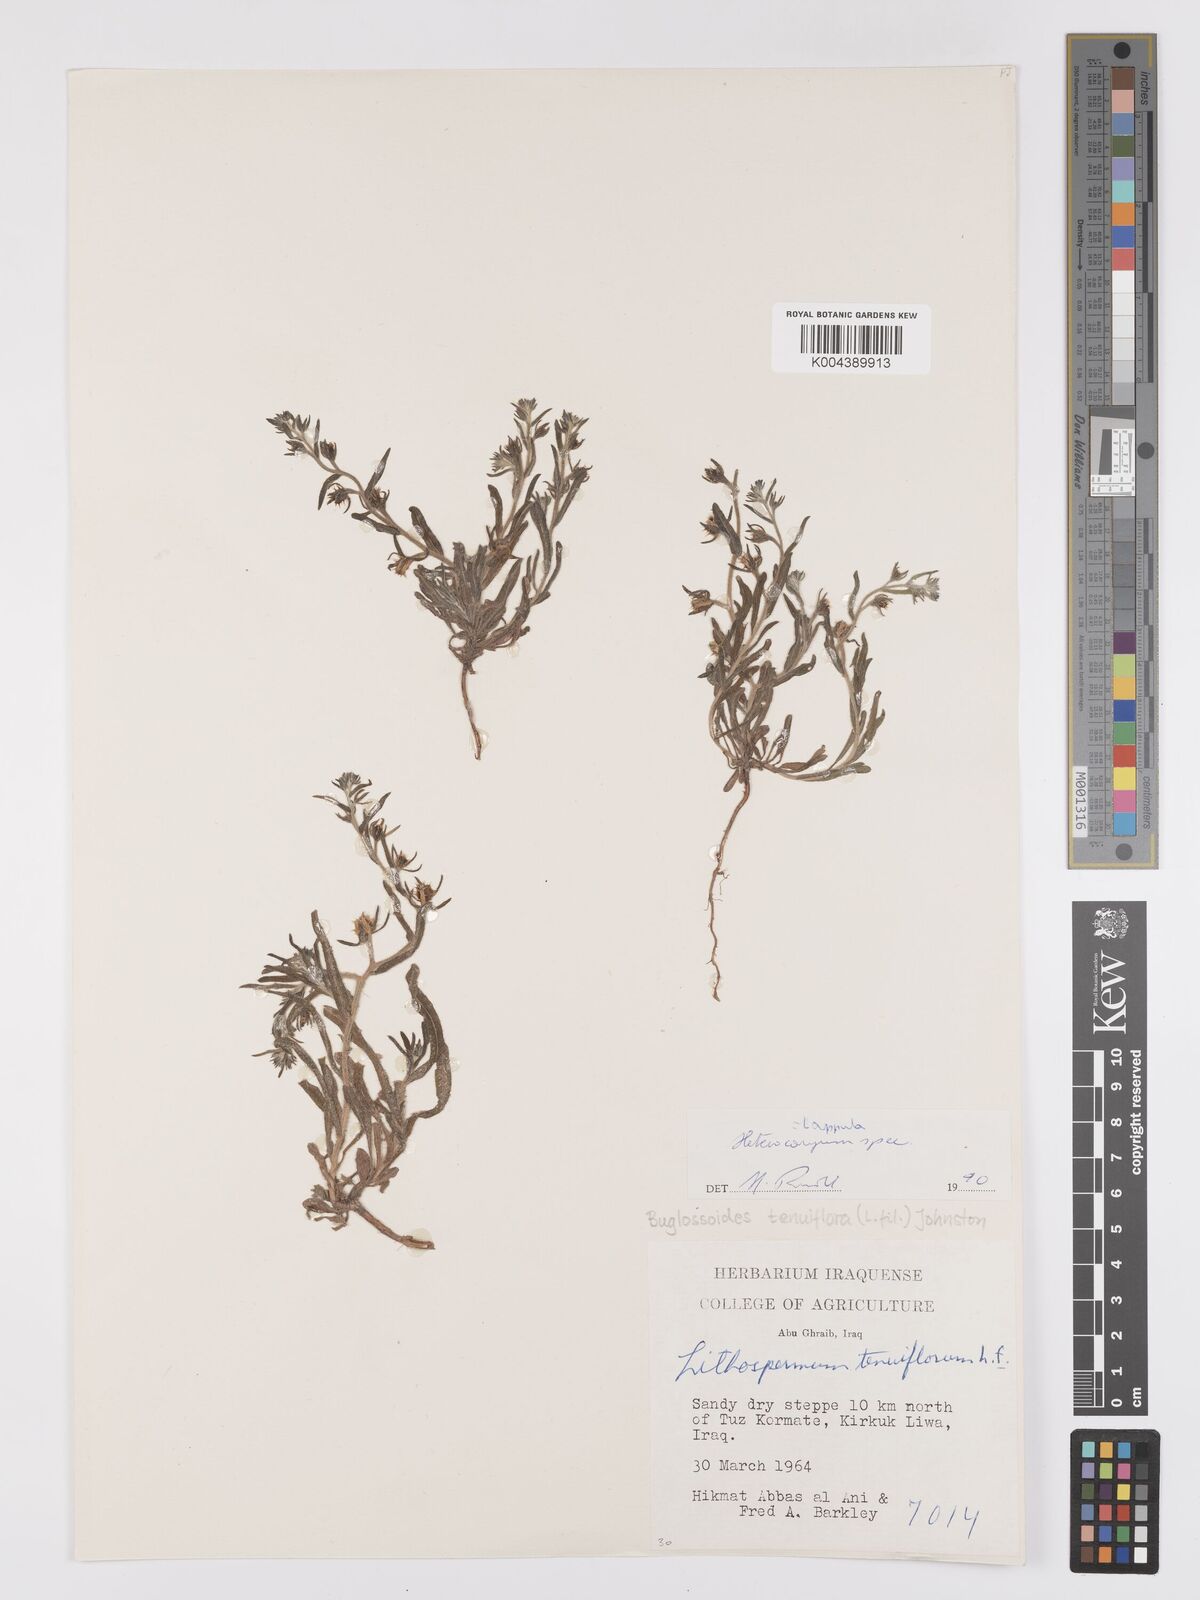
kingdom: Plantae
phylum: Tracheophyta
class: Magnoliopsida
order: Boraginales
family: Boraginaceae
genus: Lappula
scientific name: Lappula
